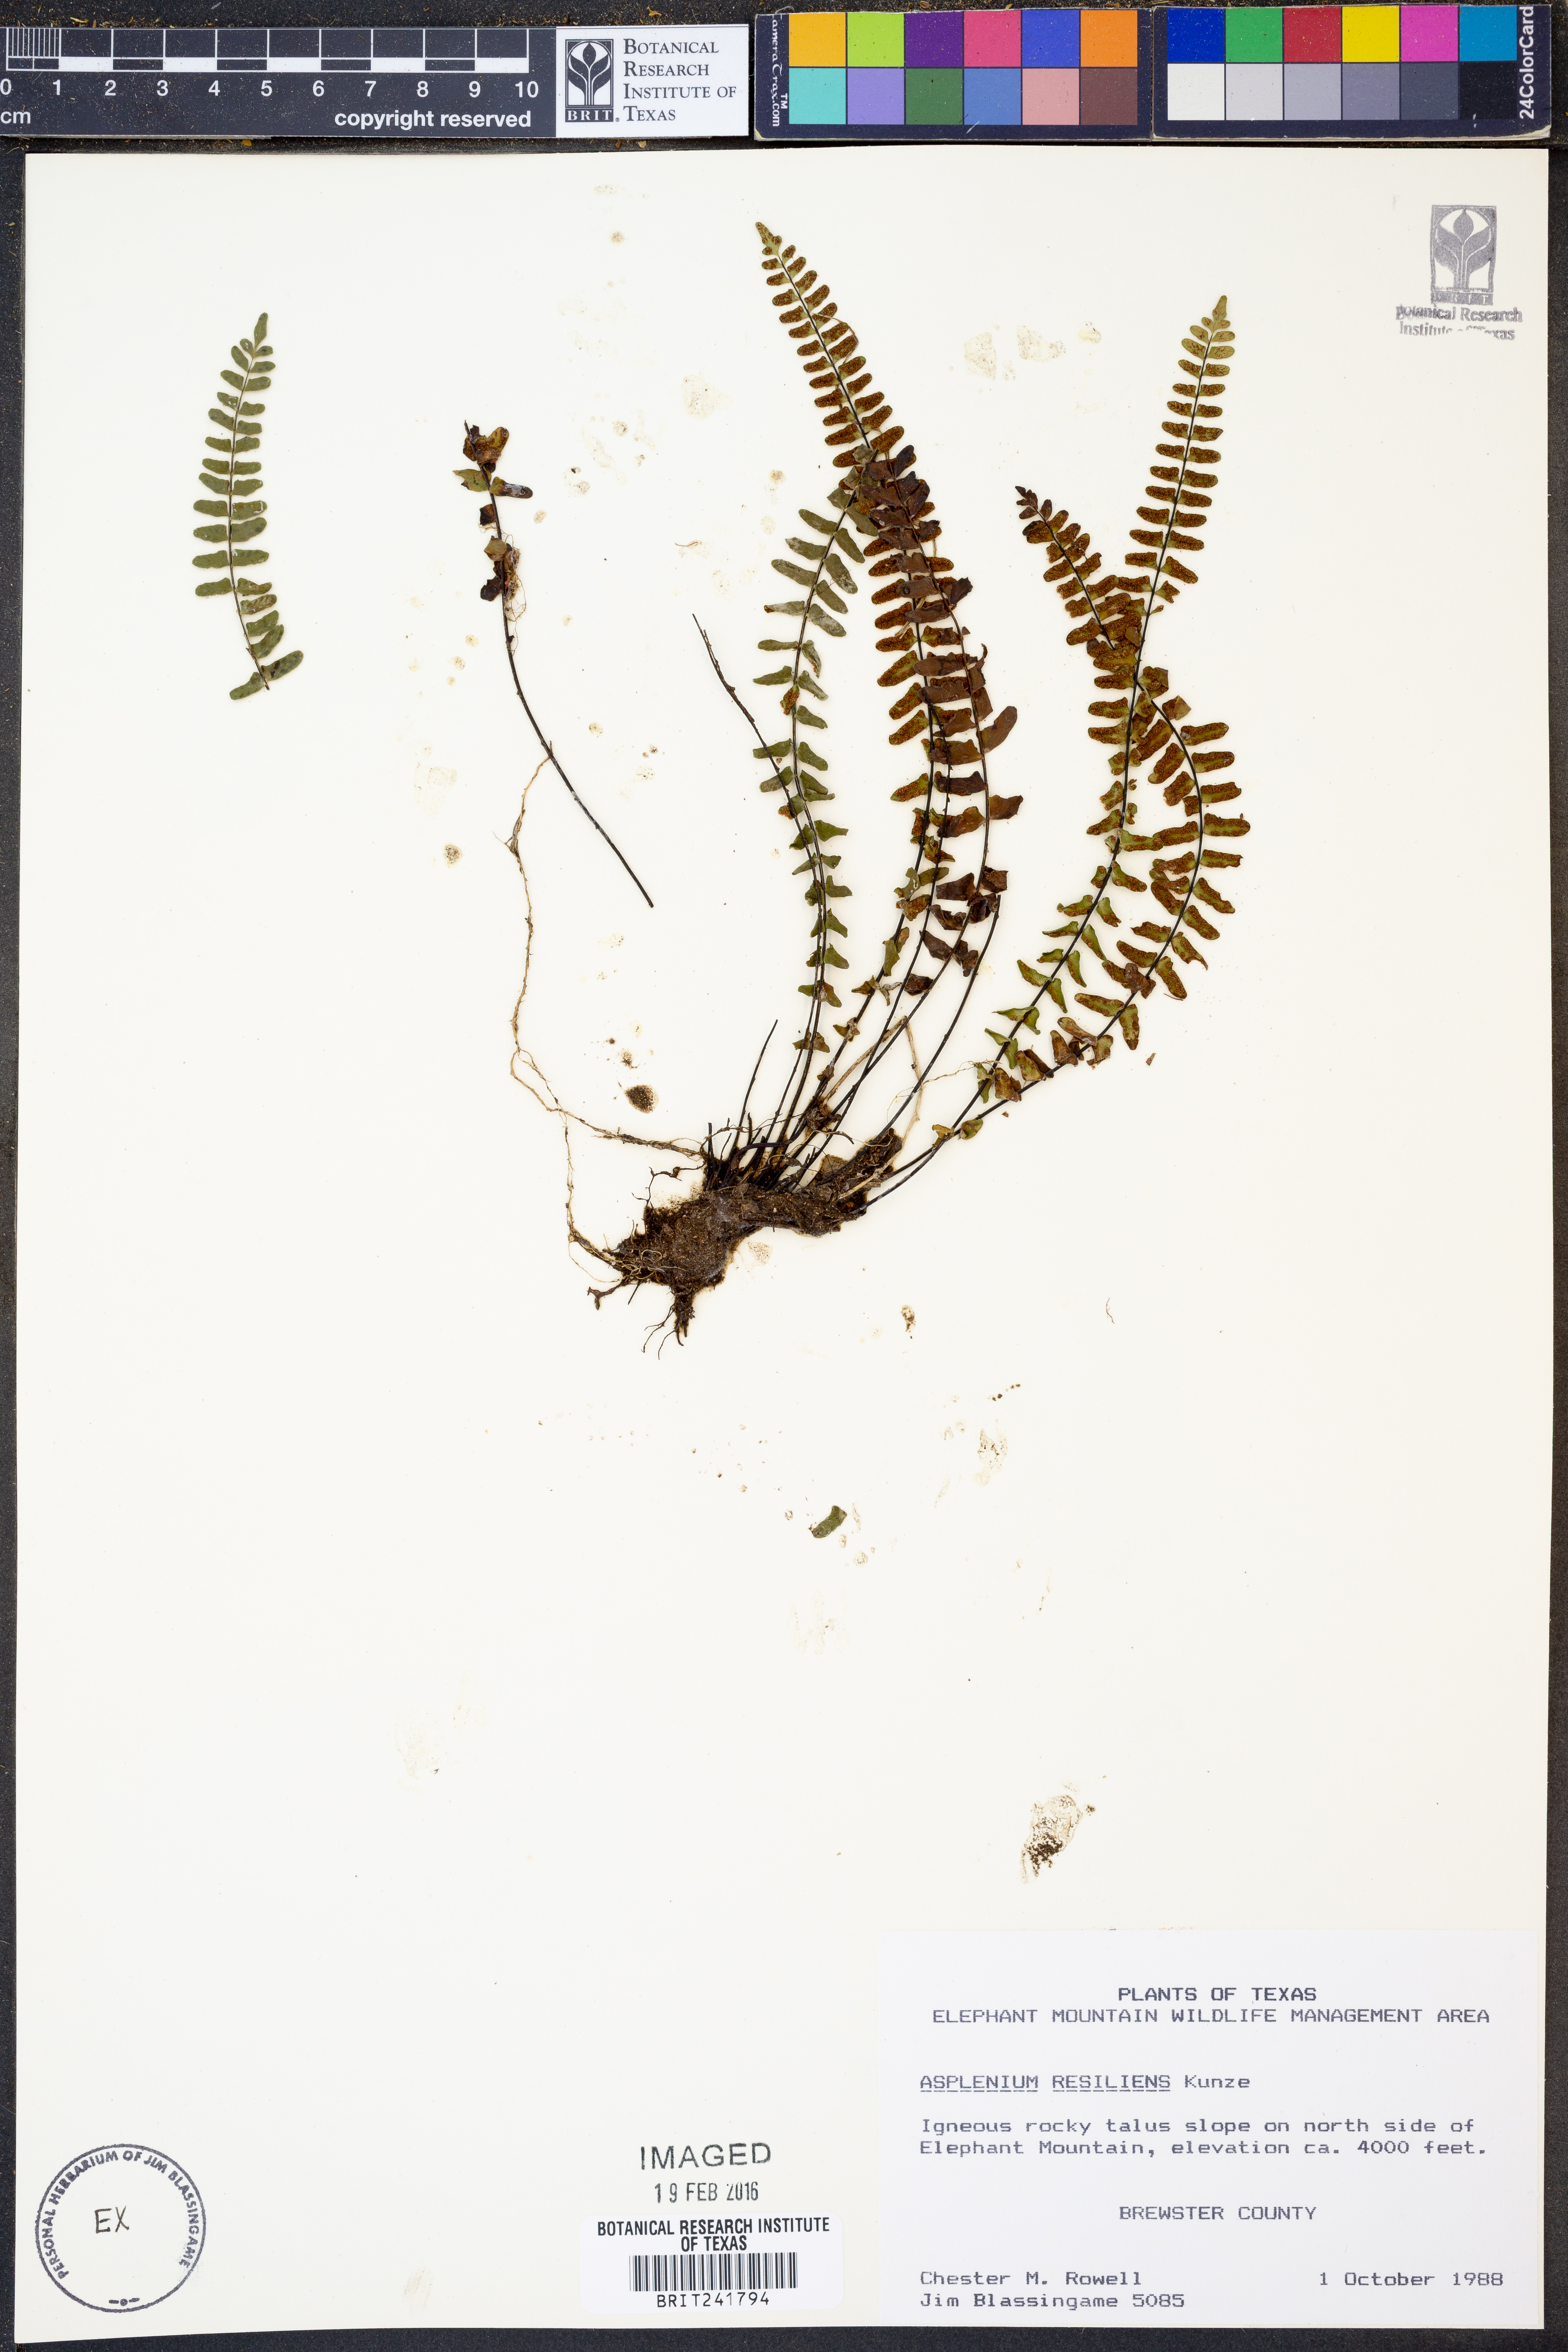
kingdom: Plantae
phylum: Tracheophyta
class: Polypodiopsida
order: Polypodiales
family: Aspleniaceae
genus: Asplenium
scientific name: Asplenium resiliens
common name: Blackstem spleenwort
